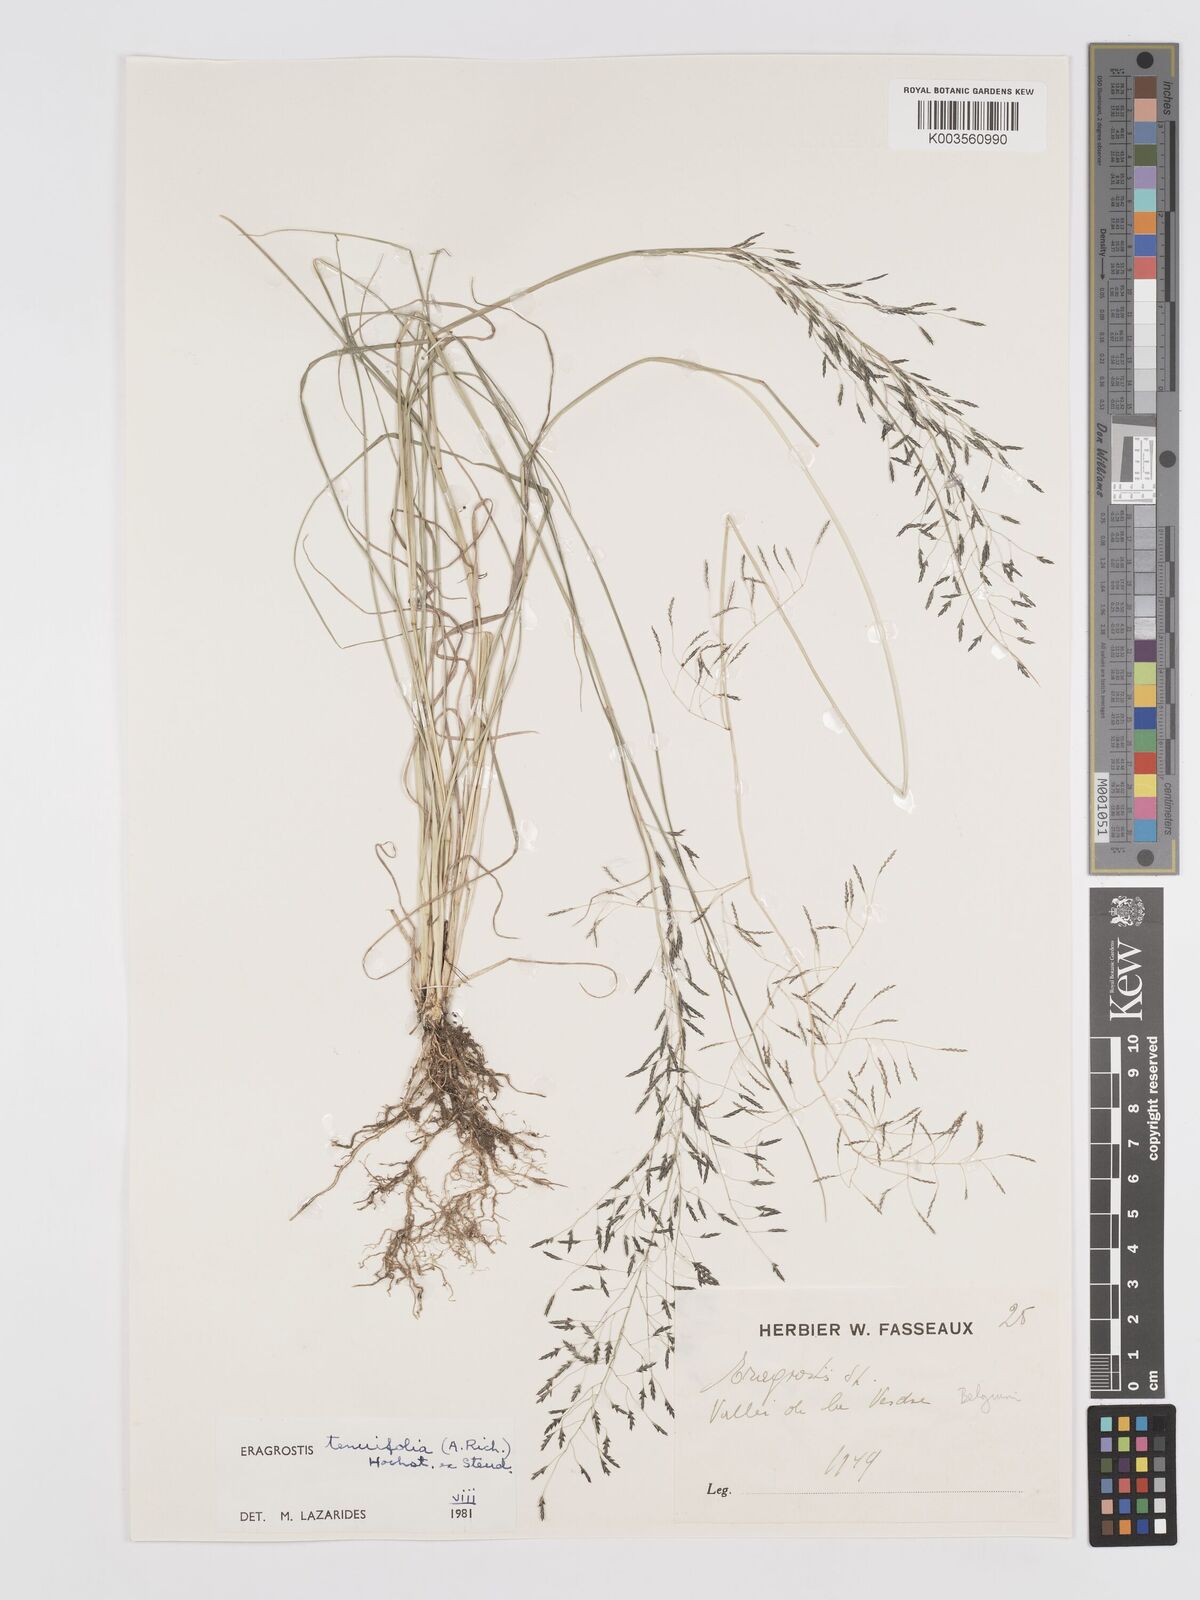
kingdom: Plantae
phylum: Tracheophyta
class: Liliopsida
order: Poales
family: Poaceae
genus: Eragrostis
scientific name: Eragrostis tenuifolia
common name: Elastic grass
